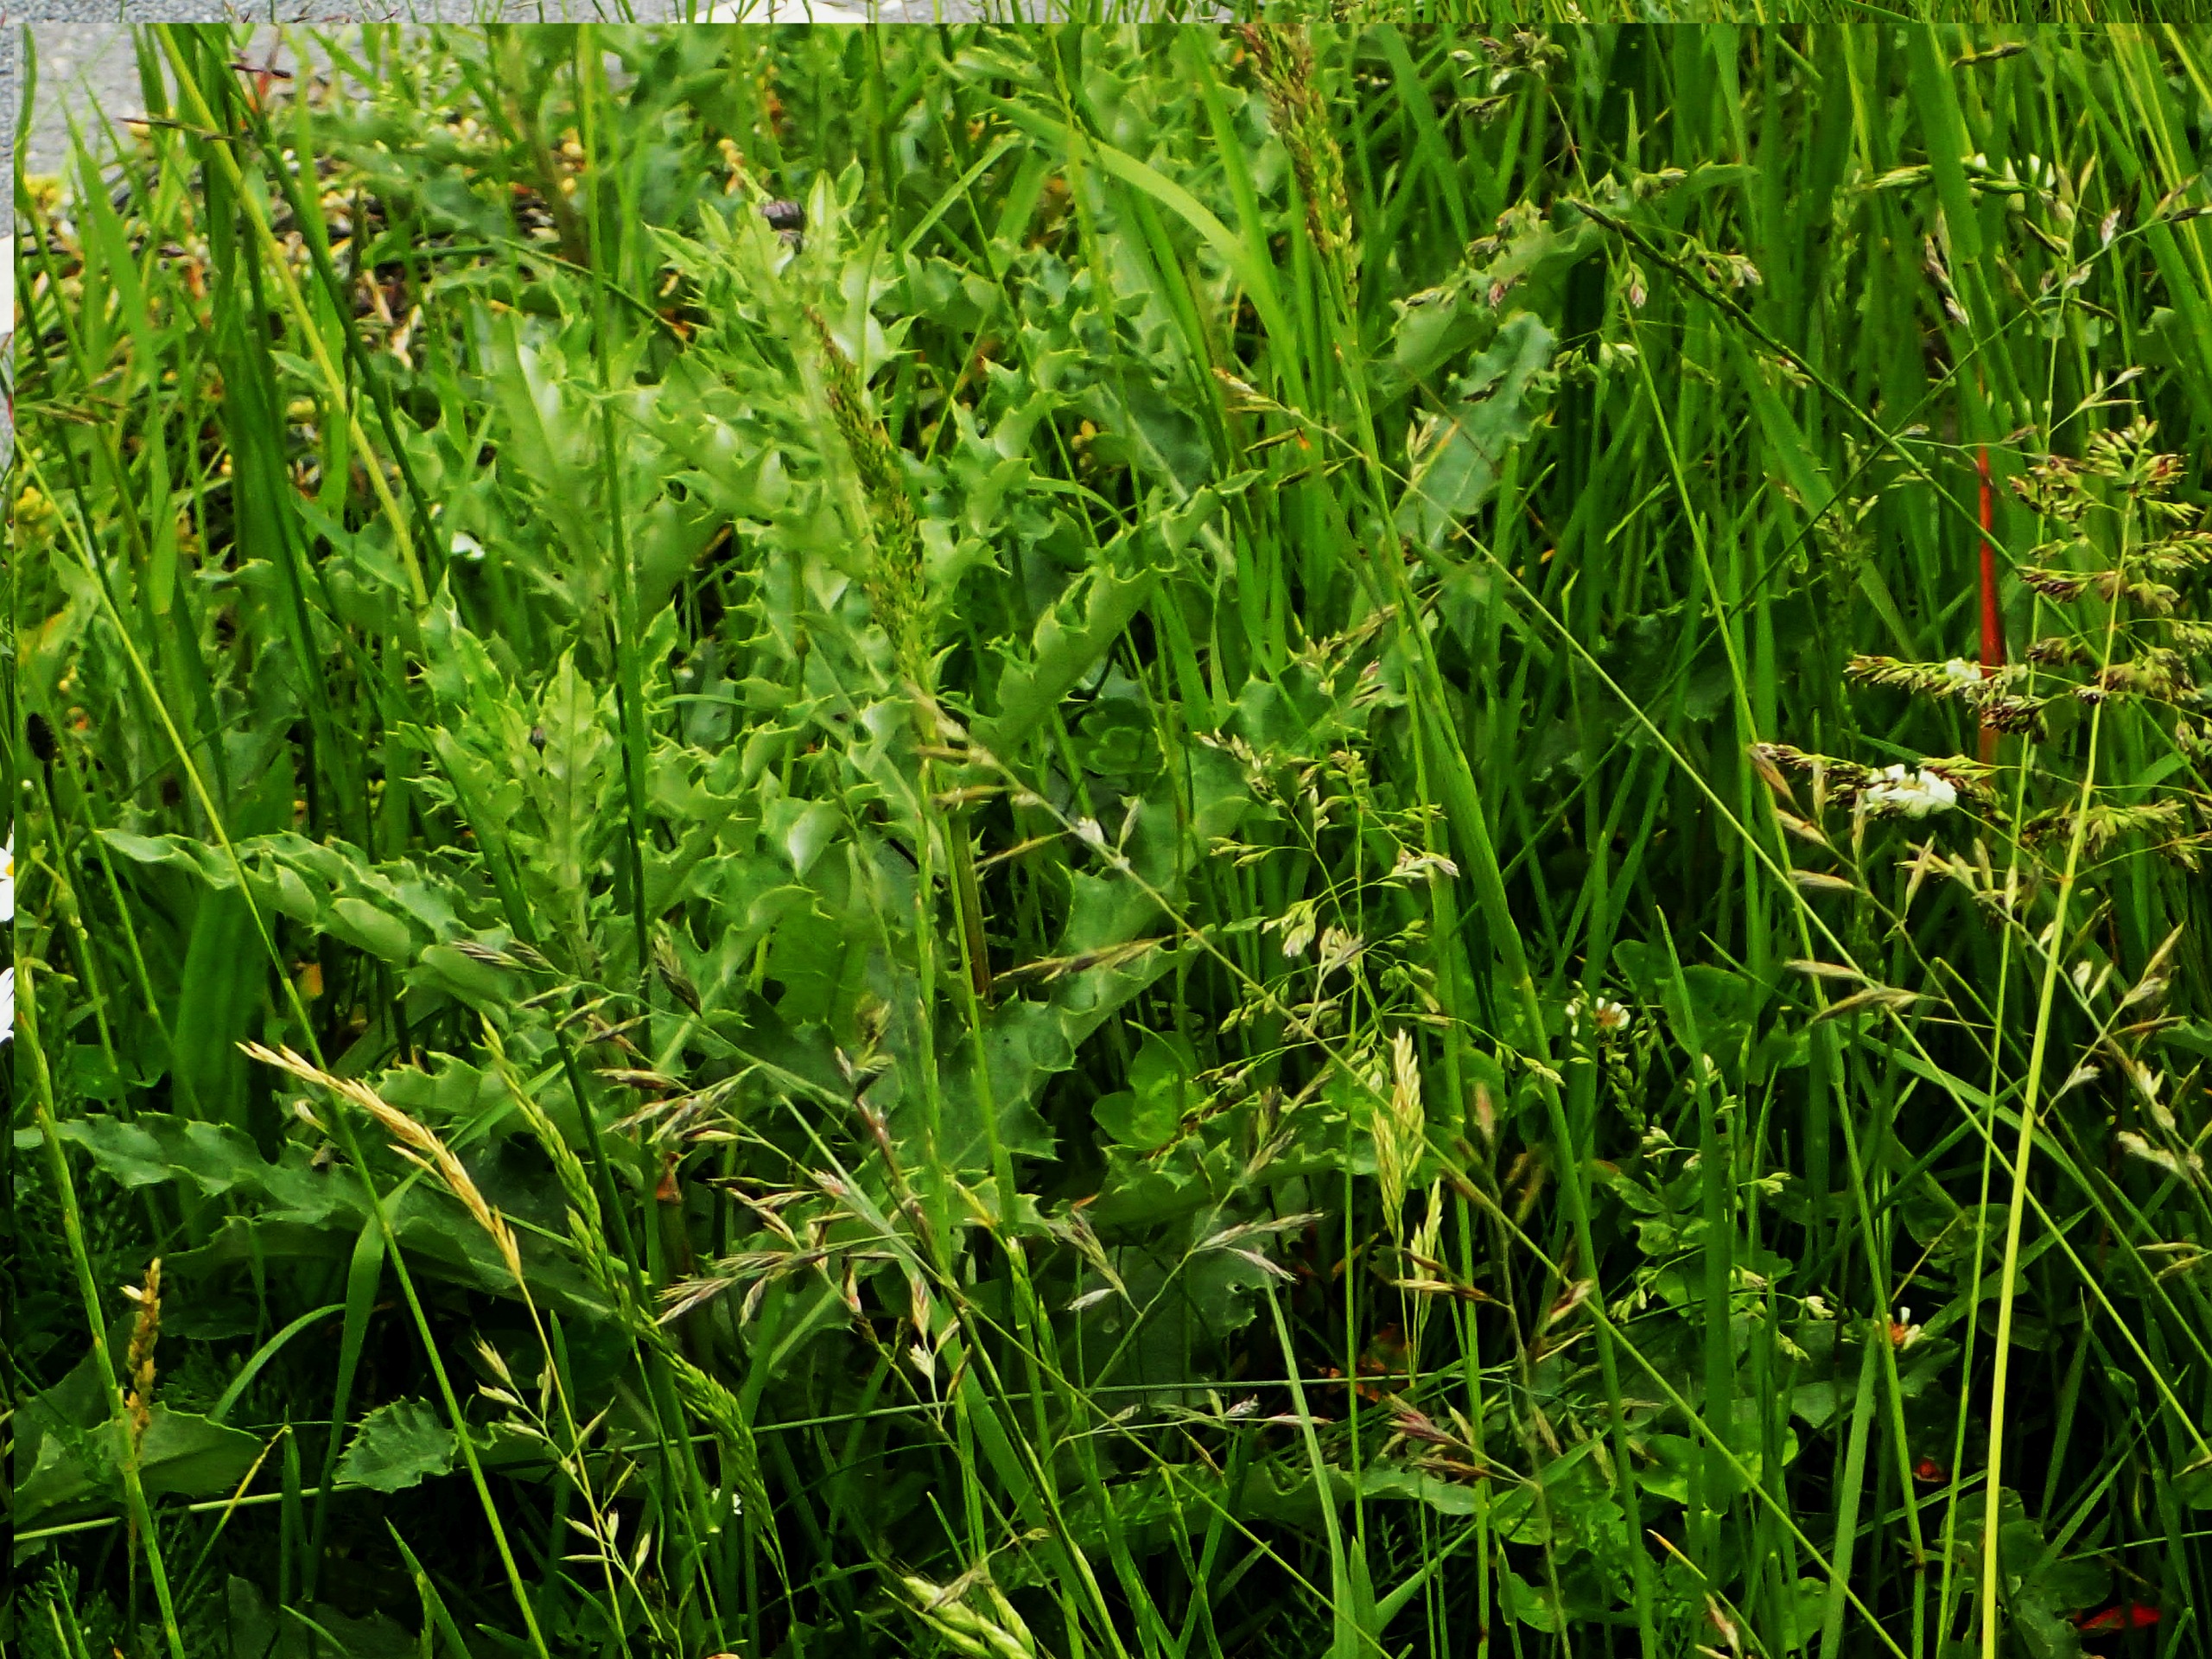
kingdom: Plantae
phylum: Tracheophyta
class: Magnoliopsida
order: Asterales
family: Asteraceae
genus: Cirsium
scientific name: Cirsium arvense
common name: Ager-tidsel
